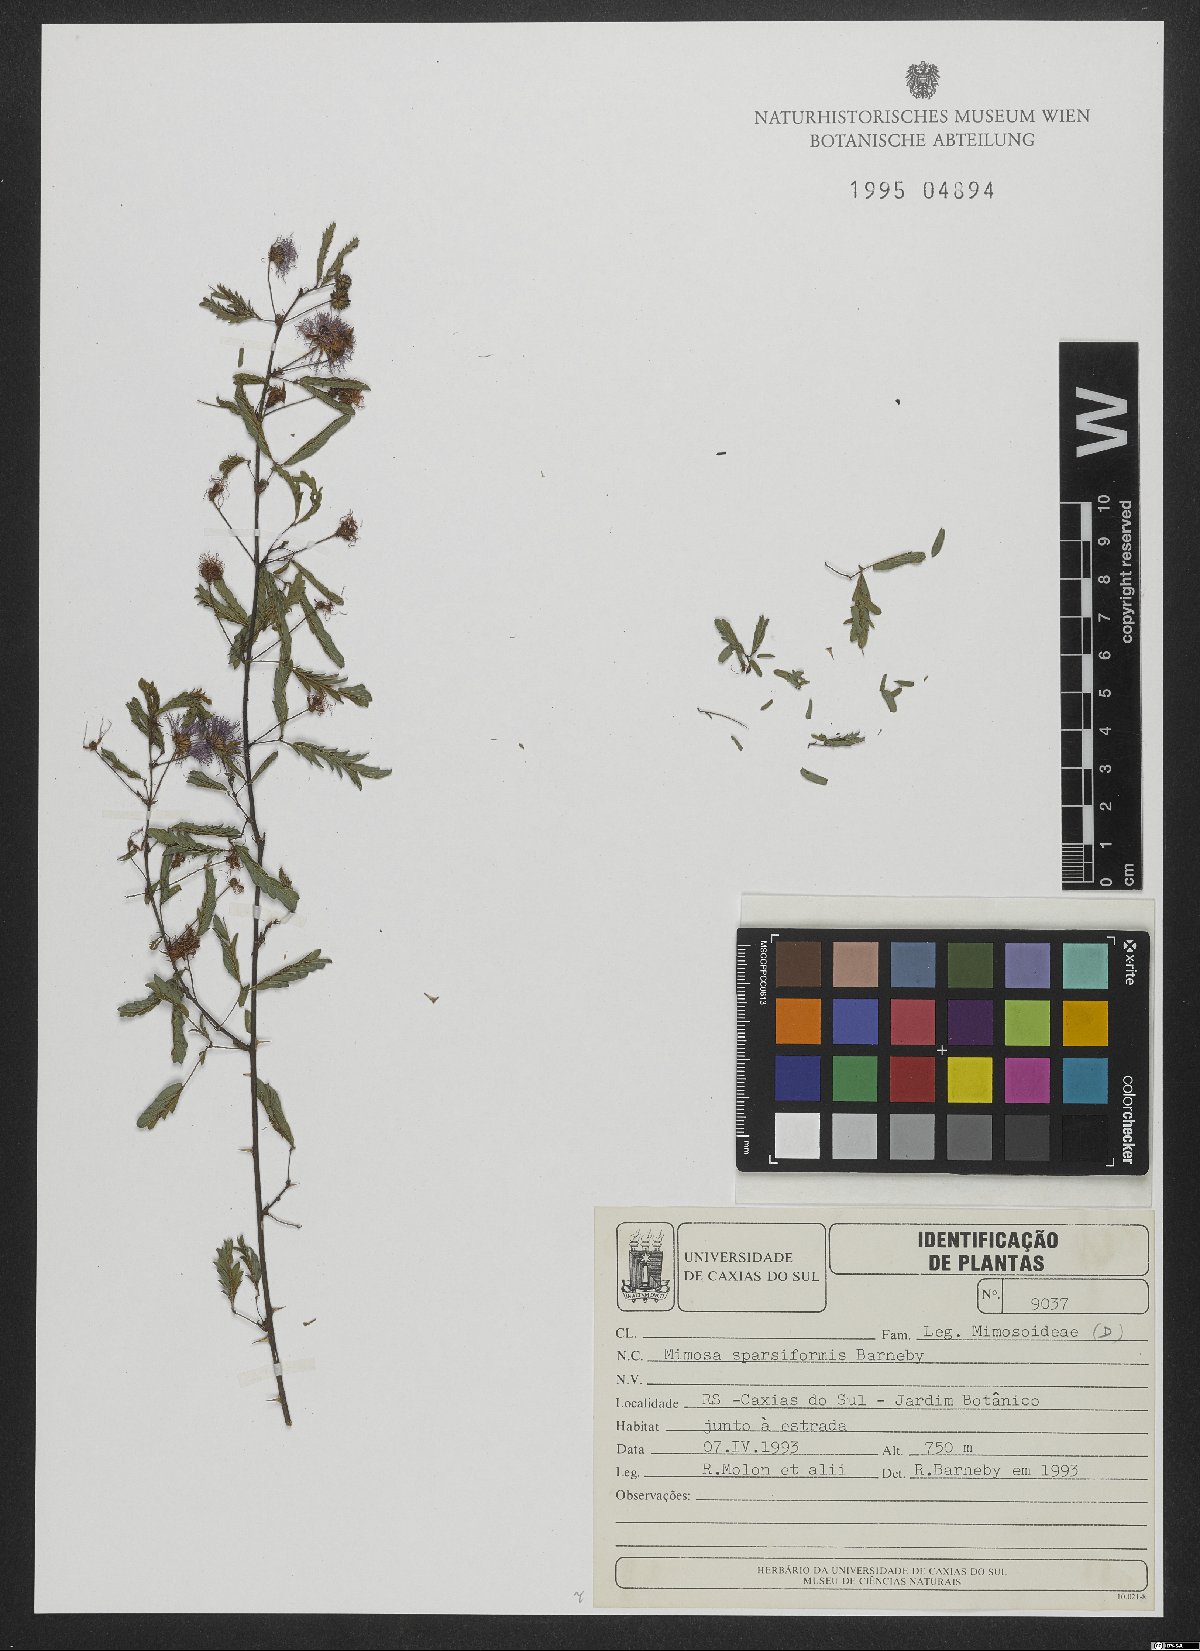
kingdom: Plantae
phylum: Tracheophyta
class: Magnoliopsida
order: Fabales
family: Fabaceae
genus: Mimosa
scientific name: Mimosa sparsiformis
